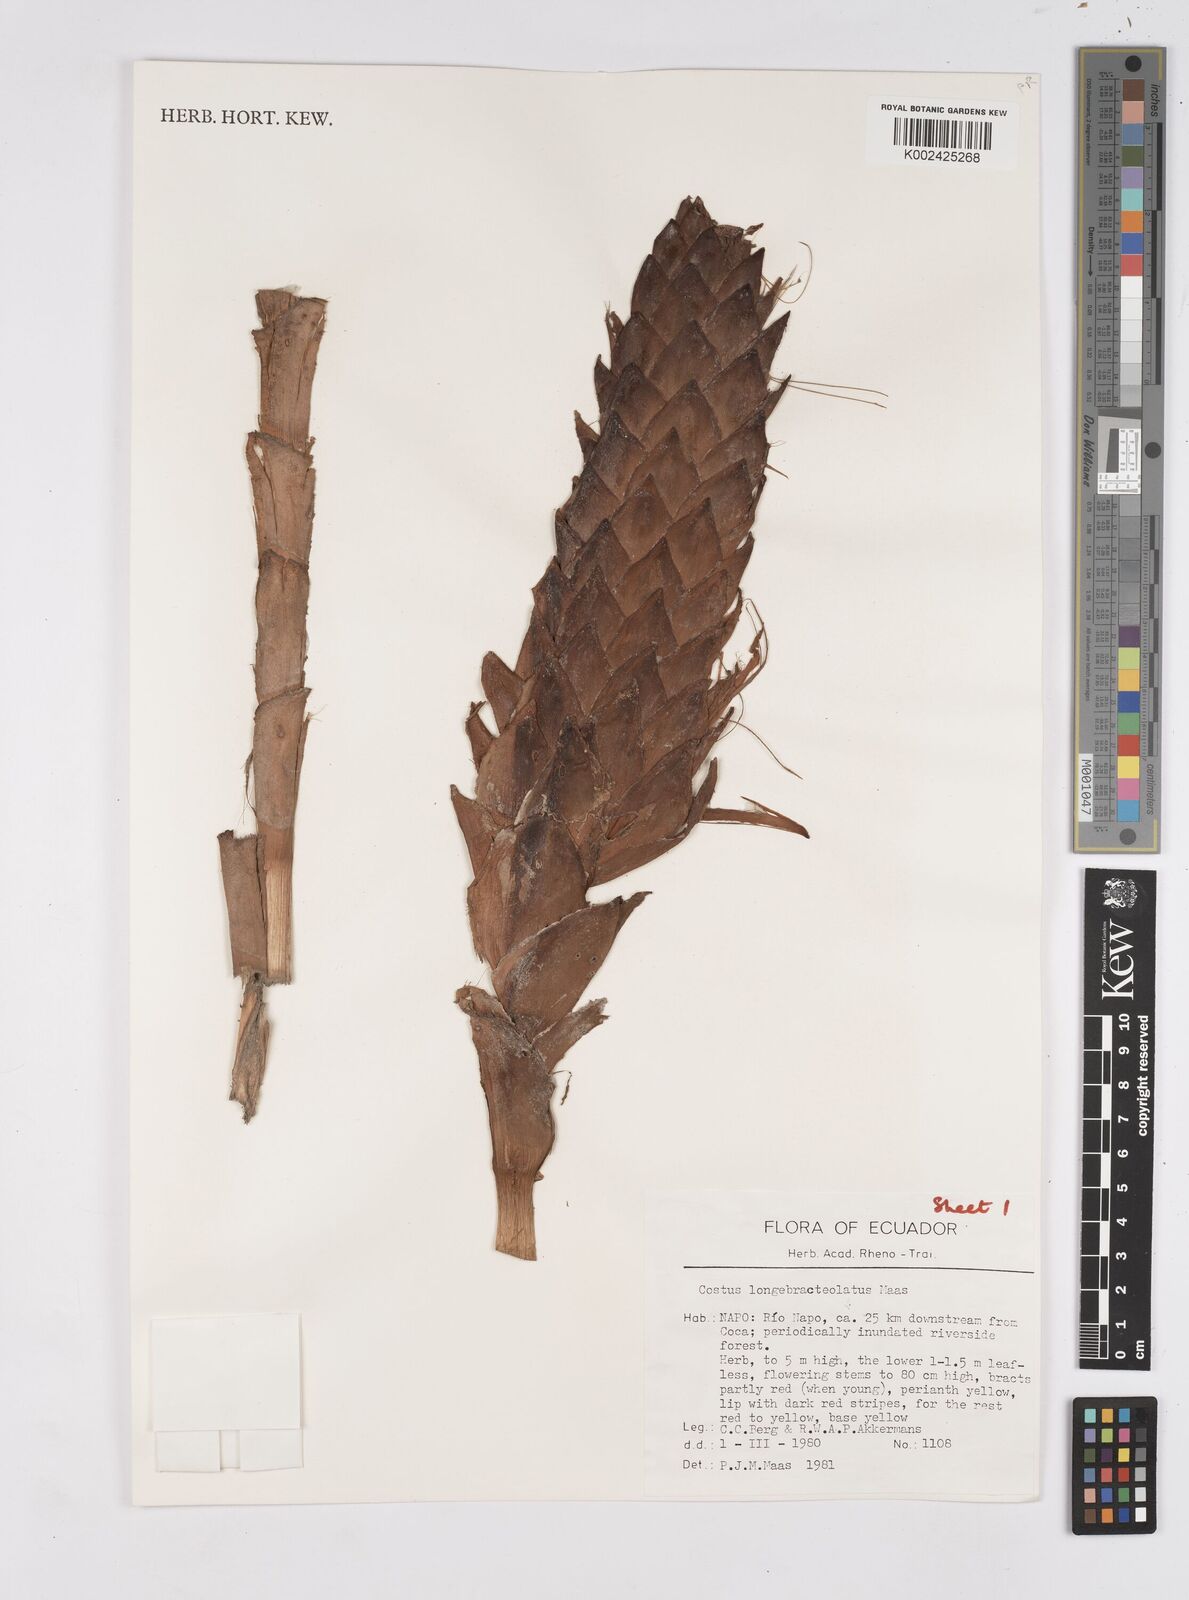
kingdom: Plantae
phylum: Tracheophyta
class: Liliopsida
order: Zingiberales
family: Costaceae
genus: Costus
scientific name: Costus longibracteolatus
